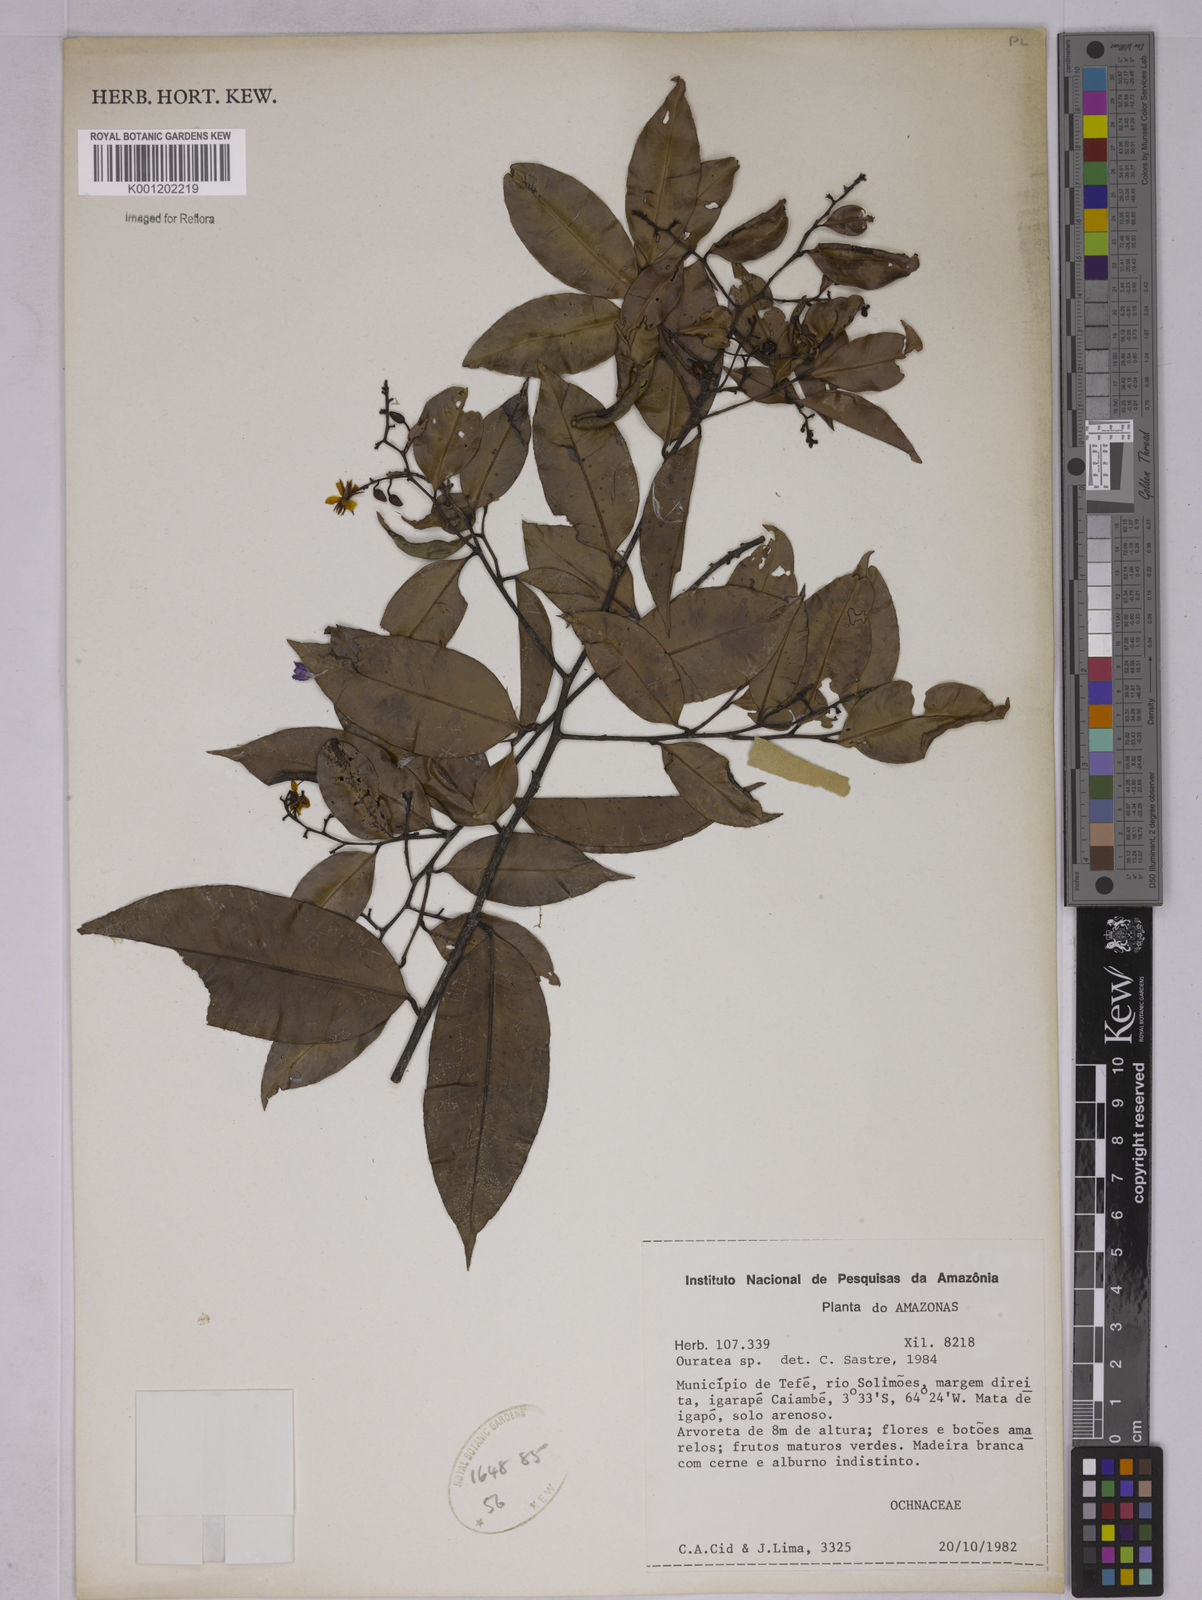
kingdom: Plantae
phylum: Tracheophyta
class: Magnoliopsida
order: Malpighiales
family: Ochnaceae
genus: Ouratea
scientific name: Ouratea
